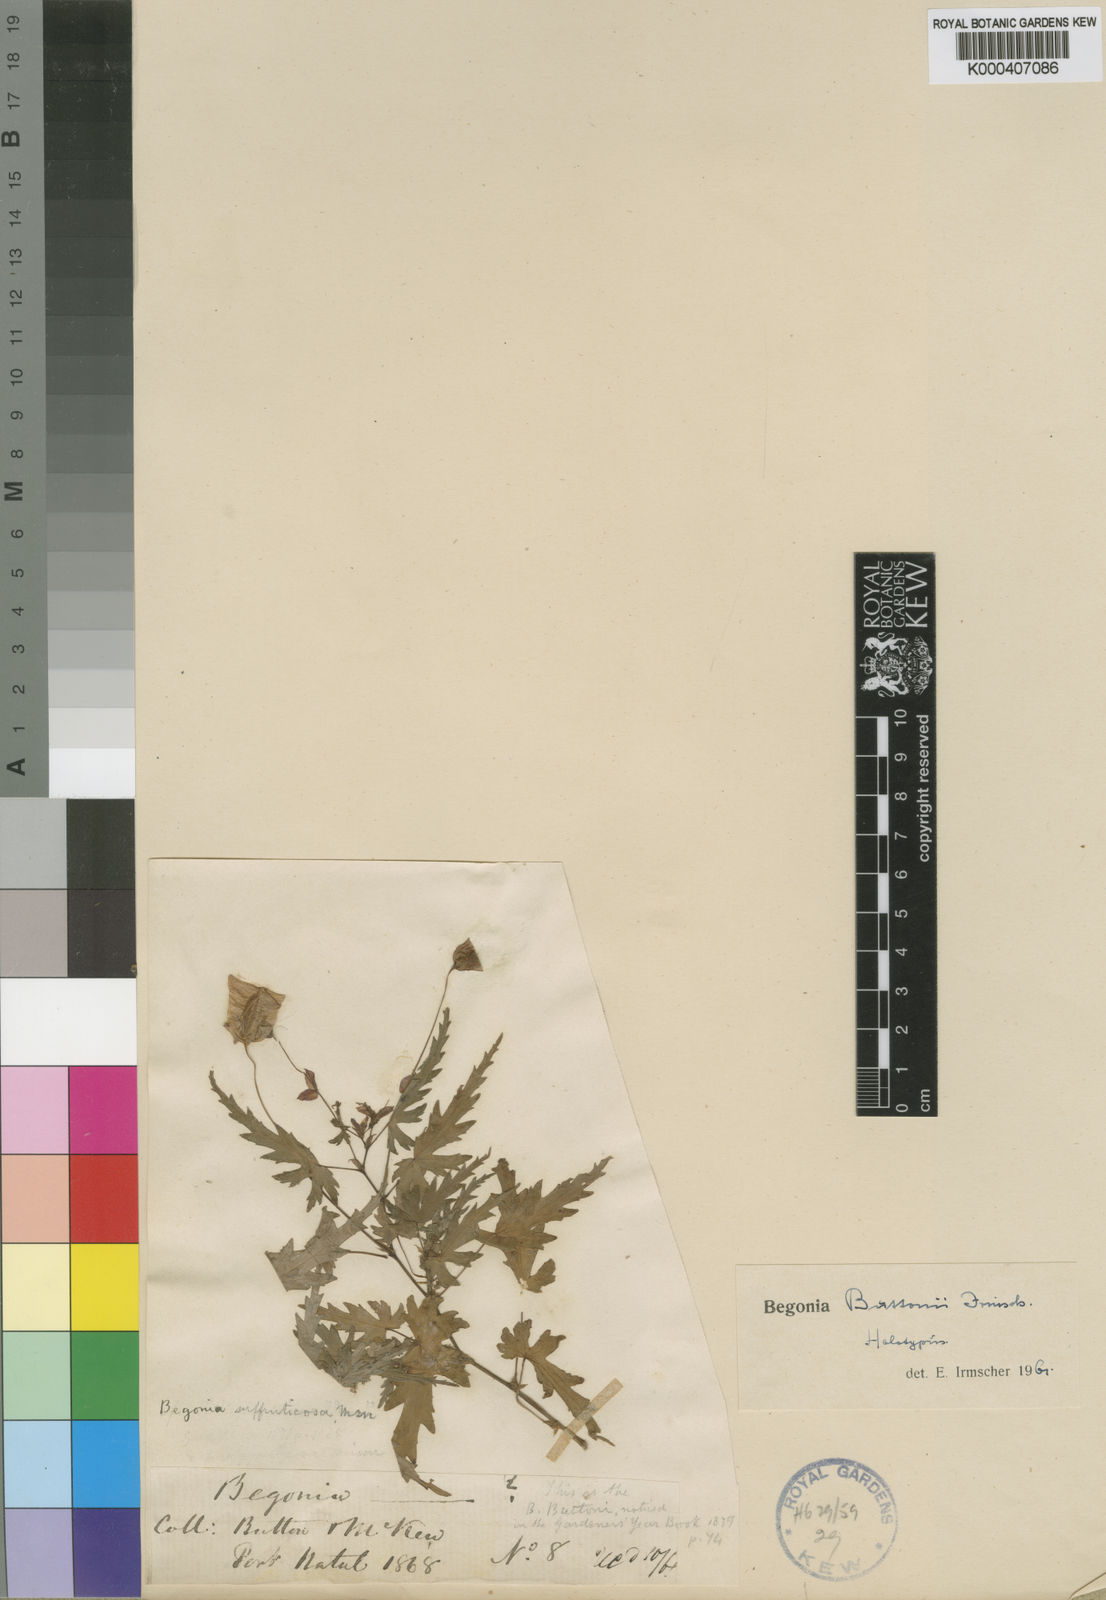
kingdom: Plantae
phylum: Tracheophyta
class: Magnoliopsida
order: Cucurbitales
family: Begoniaceae
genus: Begonia
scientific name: Begonia sutherlandii
